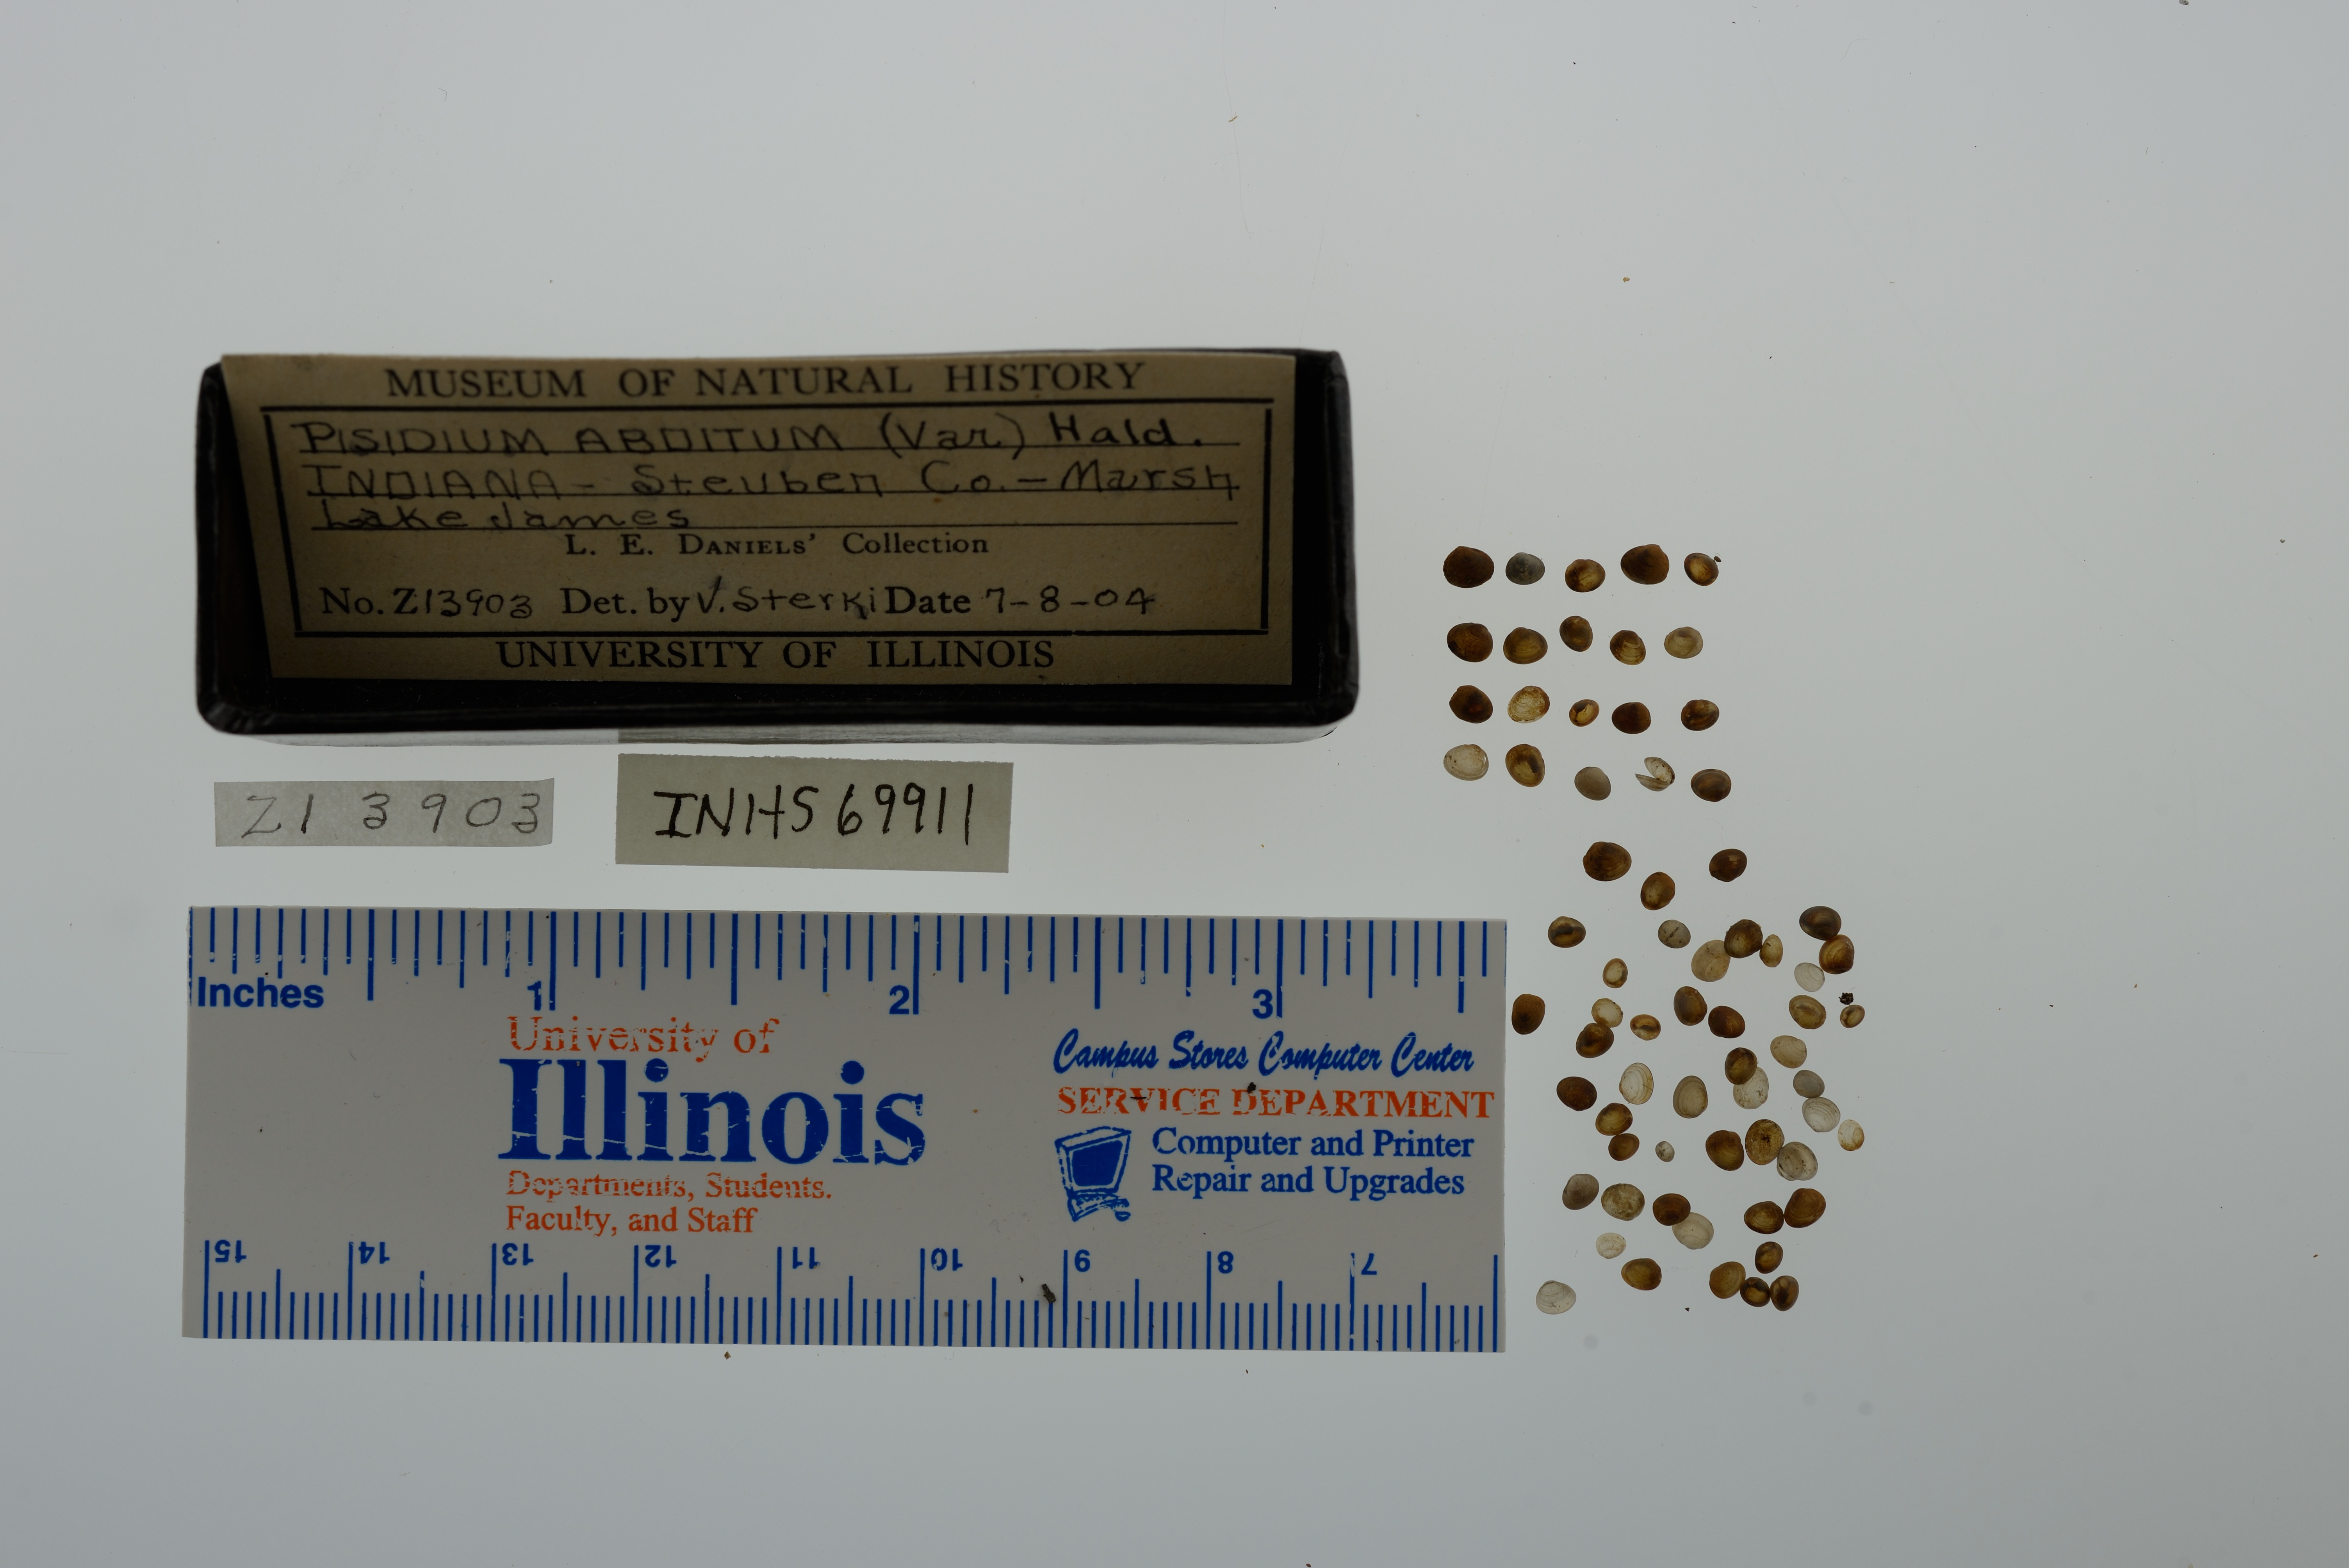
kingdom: Animalia
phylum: Mollusca
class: Bivalvia
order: Sphaeriida
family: Sphaeriidae
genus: Euglesa
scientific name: Euglesa casertana
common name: Caserta pea mussel
